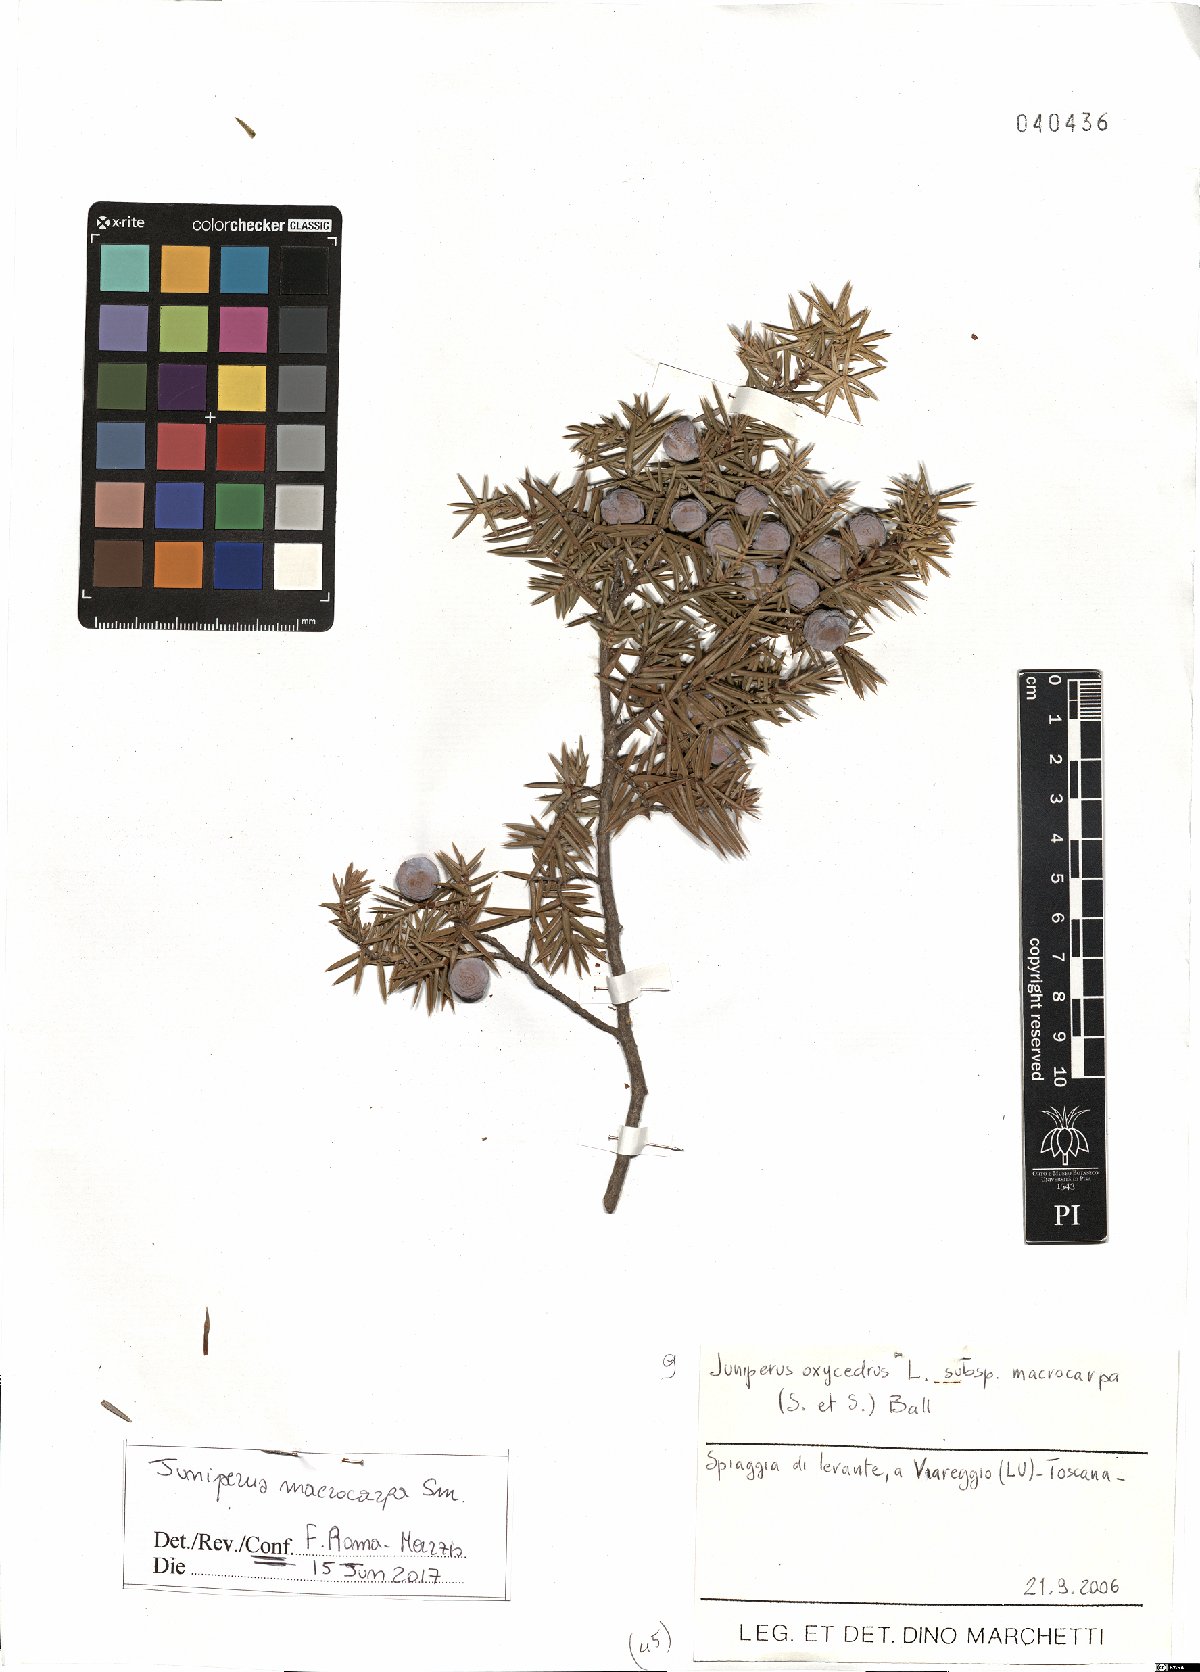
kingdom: Plantae
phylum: Tracheophyta
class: Pinopsida
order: Pinales
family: Cupressaceae
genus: Juniperus
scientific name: Juniperus oxycedrus
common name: Prickly juniper
